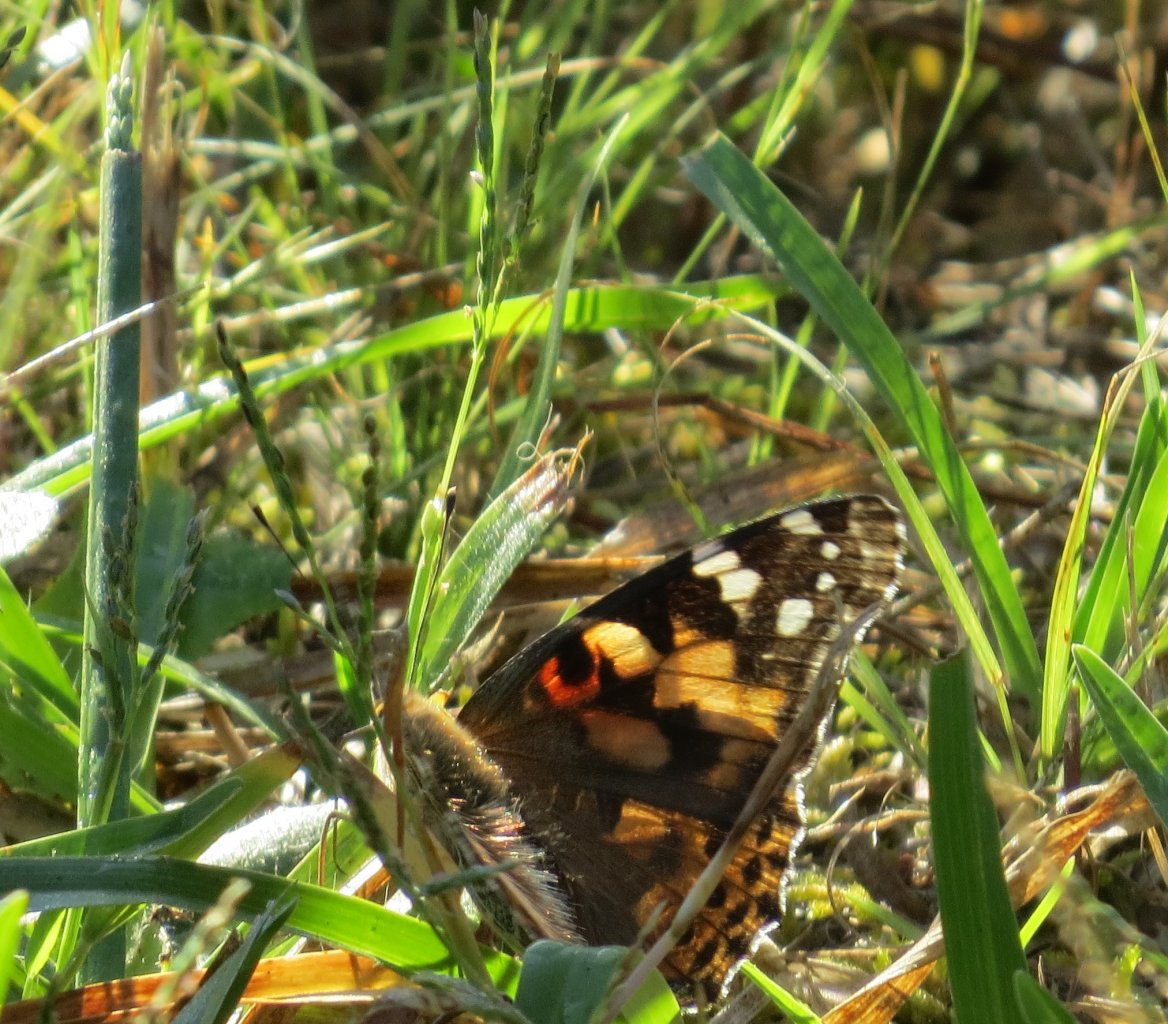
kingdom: Animalia
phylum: Arthropoda
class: Insecta
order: Lepidoptera
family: Nymphalidae
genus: Vanessa
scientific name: Vanessa cardui
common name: Painted Lady
